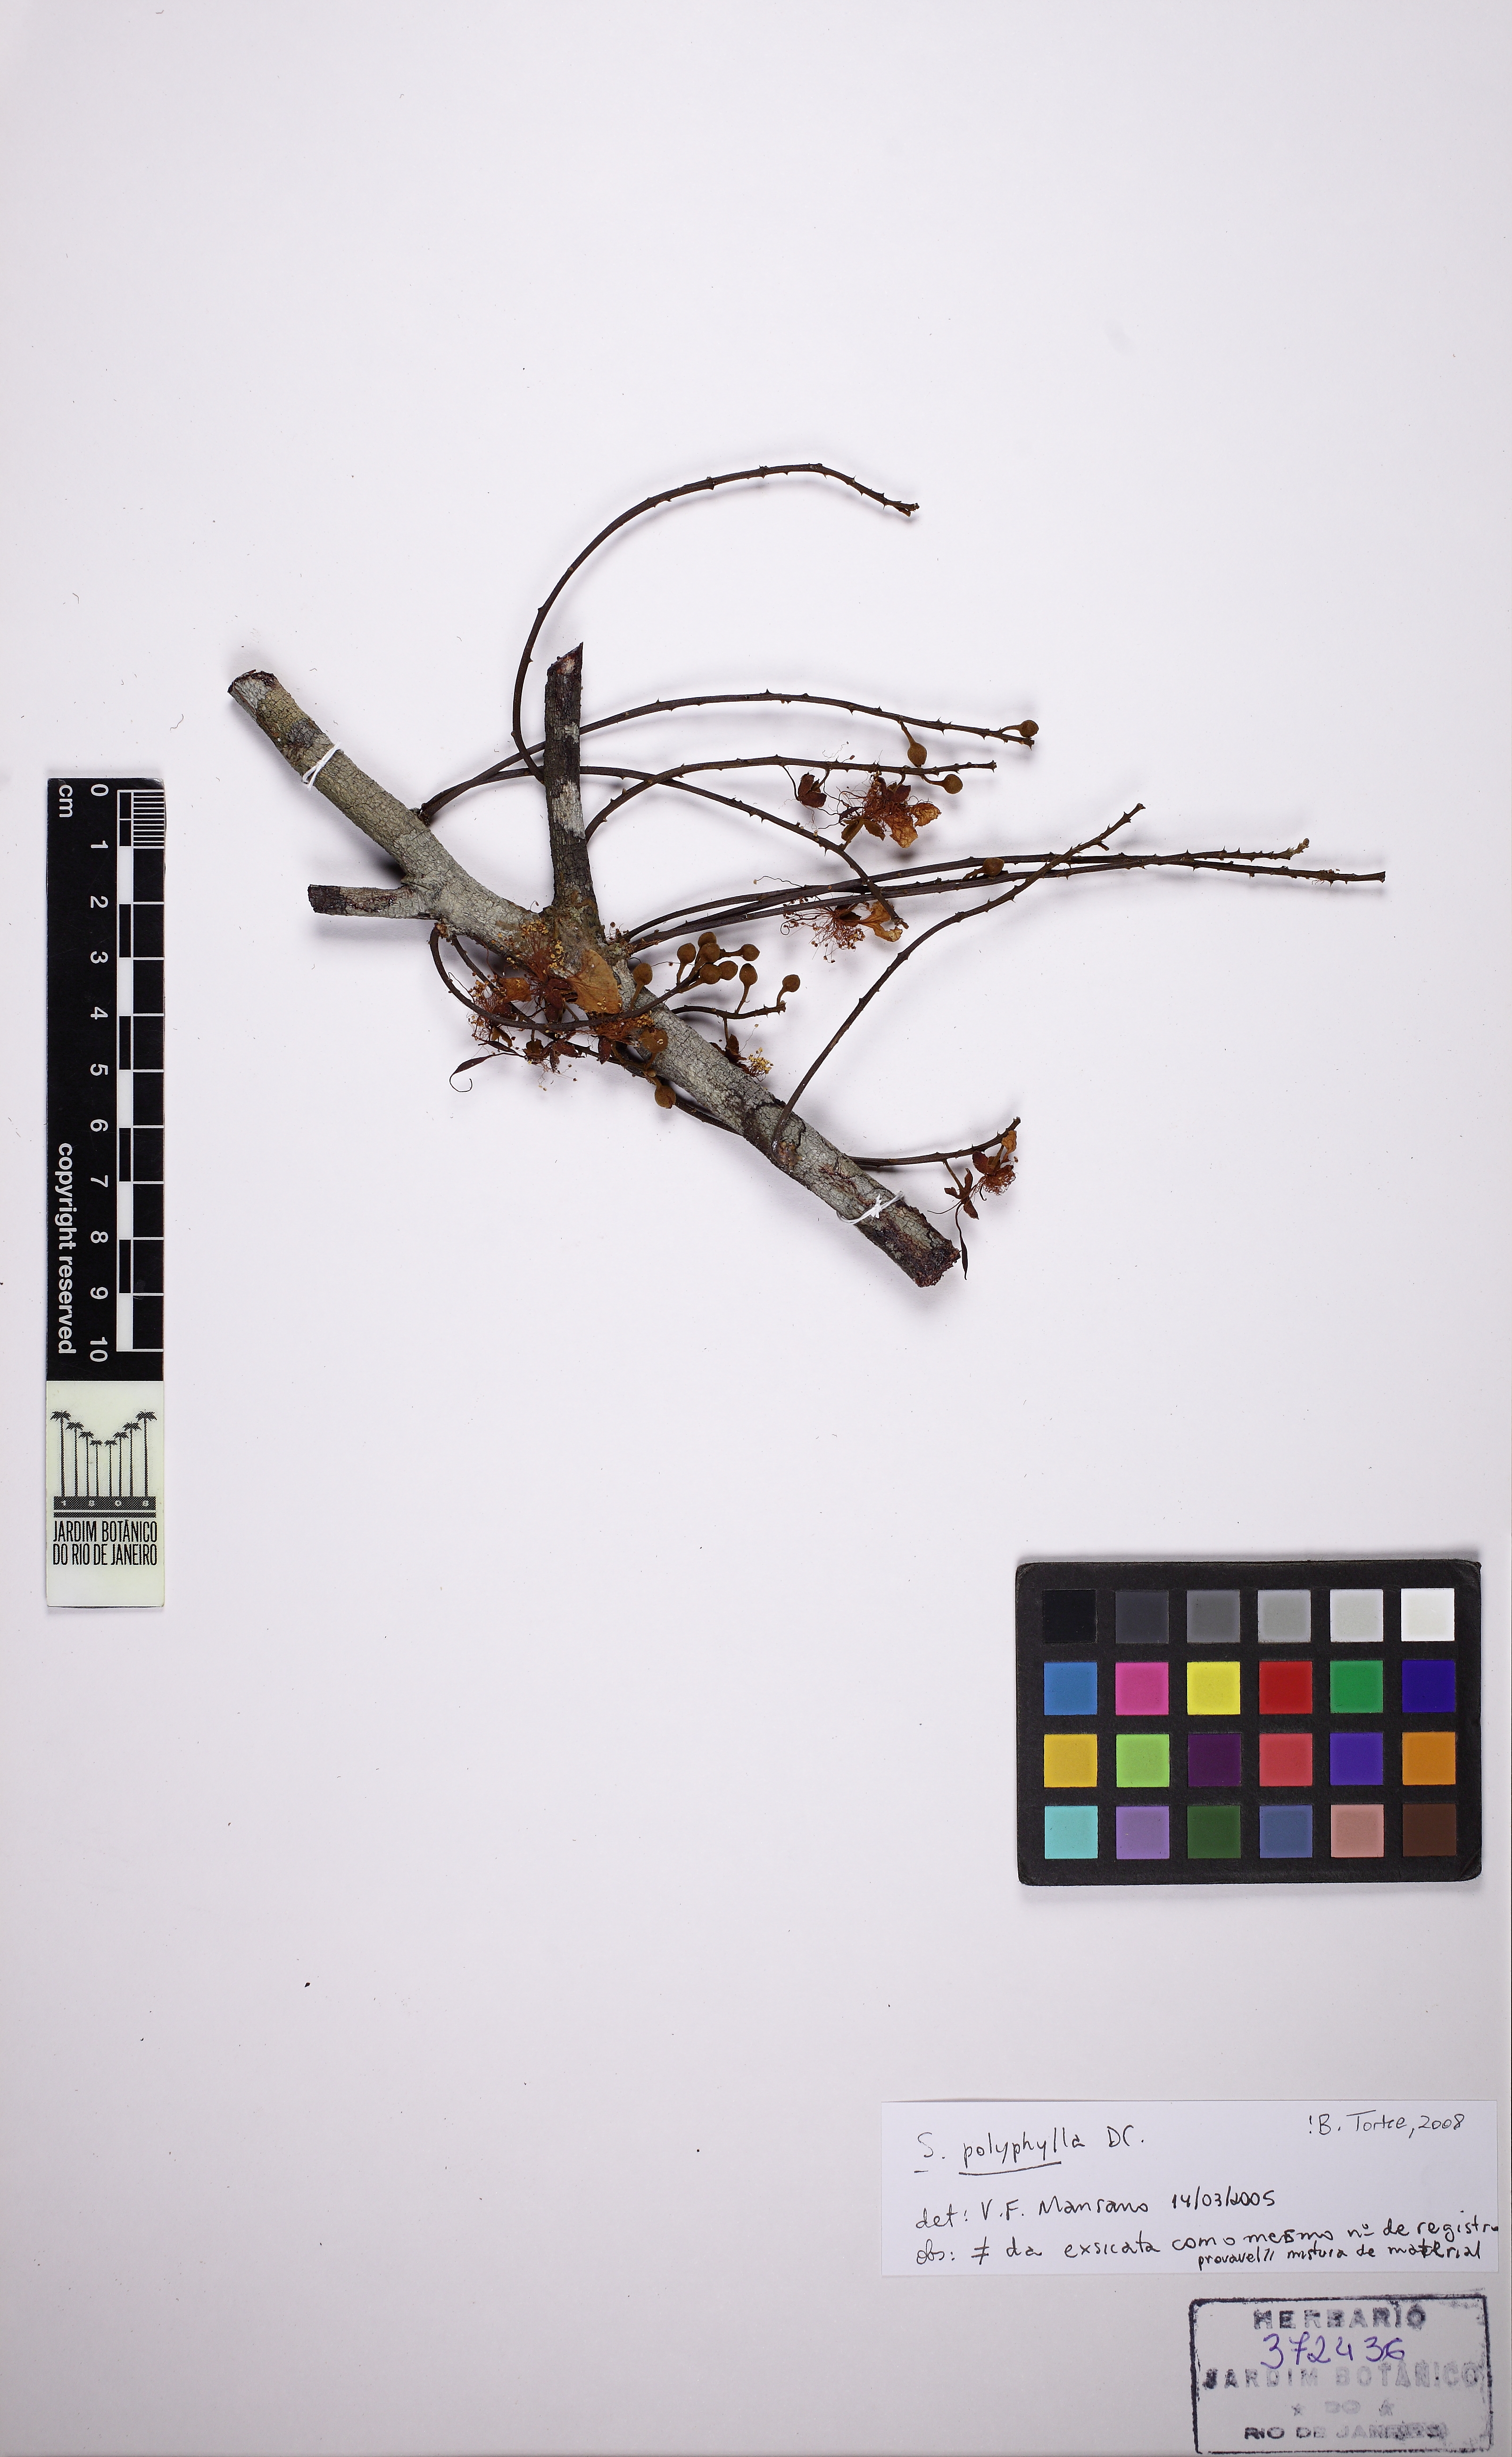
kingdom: Plantae
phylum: Tracheophyta
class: Magnoliopsida
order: Fabales
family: Fabaceae
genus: Swartzia
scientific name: Swartzia polyphylla
